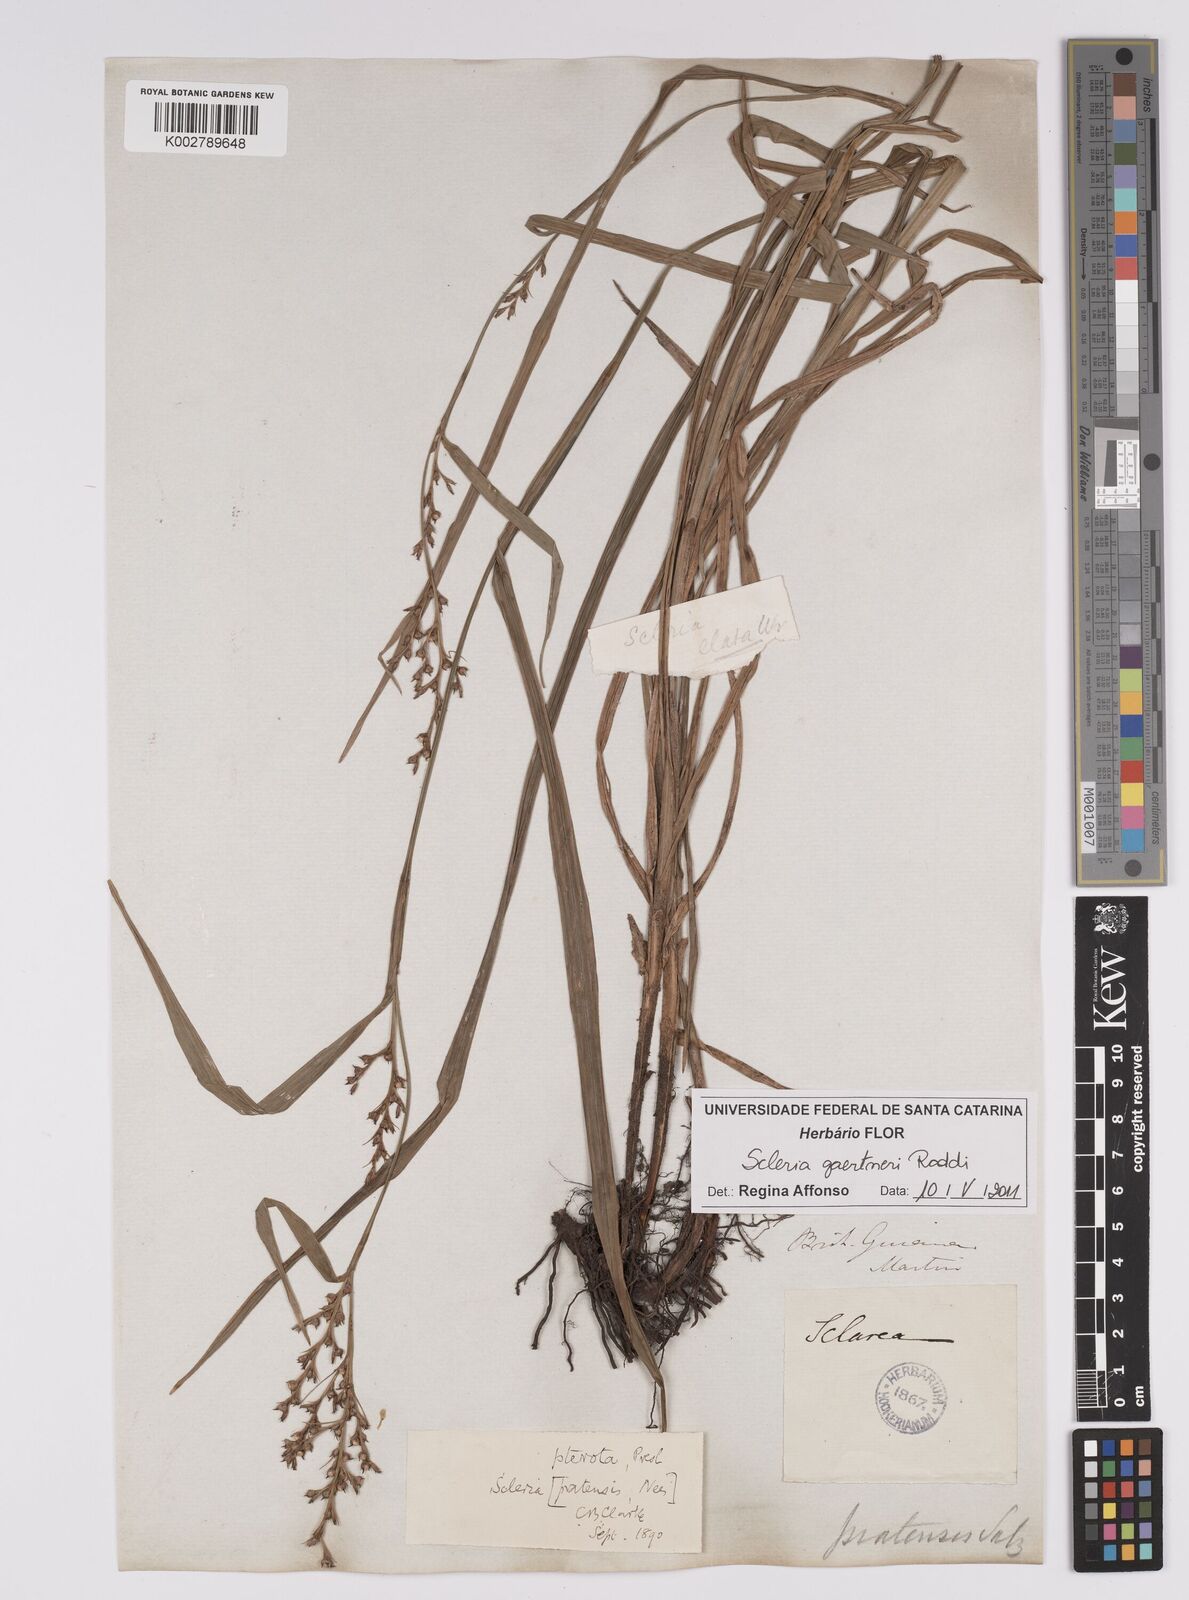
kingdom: Plantae
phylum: Tracheophyta
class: Liliopsida
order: Poales
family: Cyperaceae
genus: Scleria
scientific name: Scleria gaertneri
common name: Cortadera blanca
